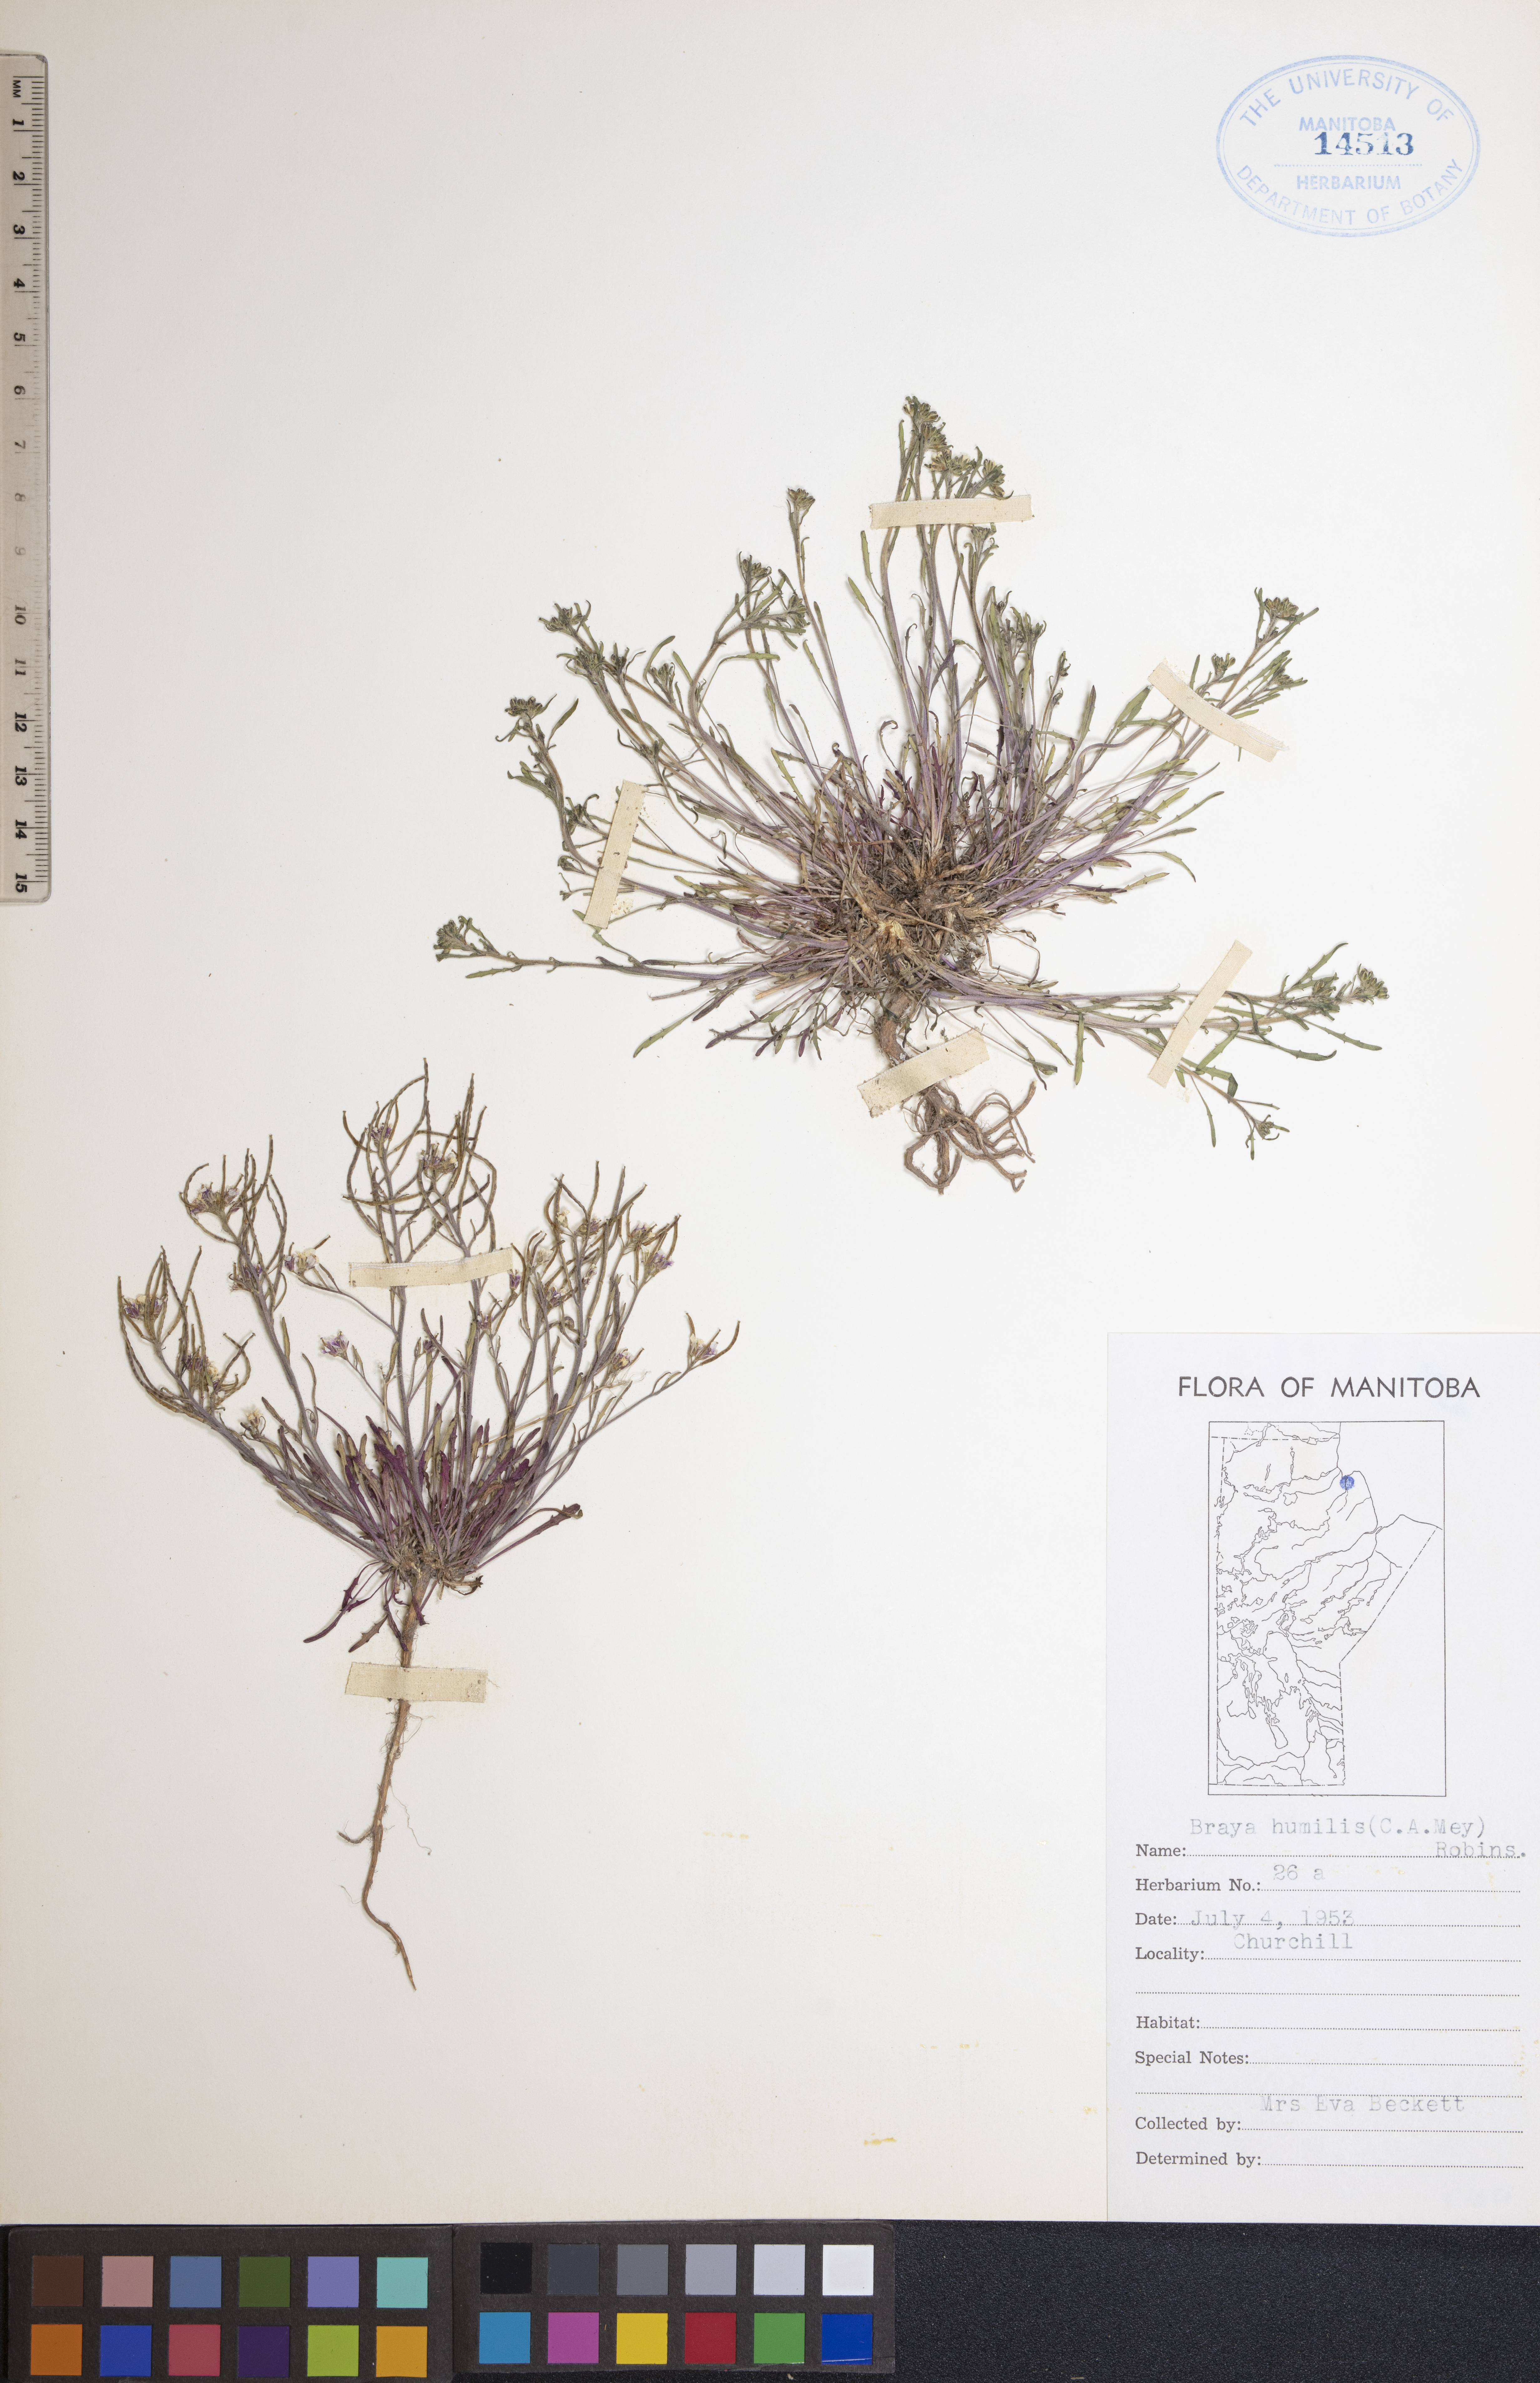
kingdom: Plantae
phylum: Tracheophyta
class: Magnoliopsida
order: Brassicales
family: Brassicaceae
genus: Braya
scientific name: Braya humilis
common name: Alpine northern rockcress
